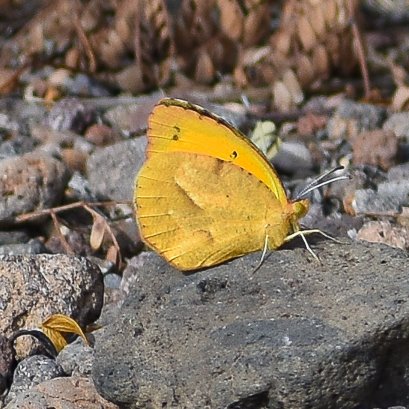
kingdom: Animalia
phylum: Arthropoda
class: Insecta
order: Lepidoptera
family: Pieridae
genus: Abaeis
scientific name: Abaeis nicippe
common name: Sleepy Orange
